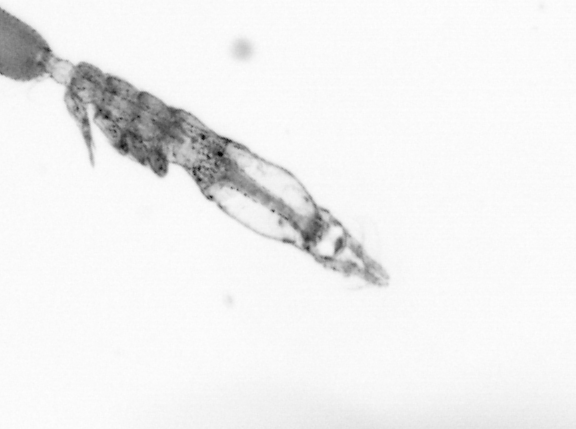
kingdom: Animalia
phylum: Arthropoda
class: Copepoda
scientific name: Copepoda
